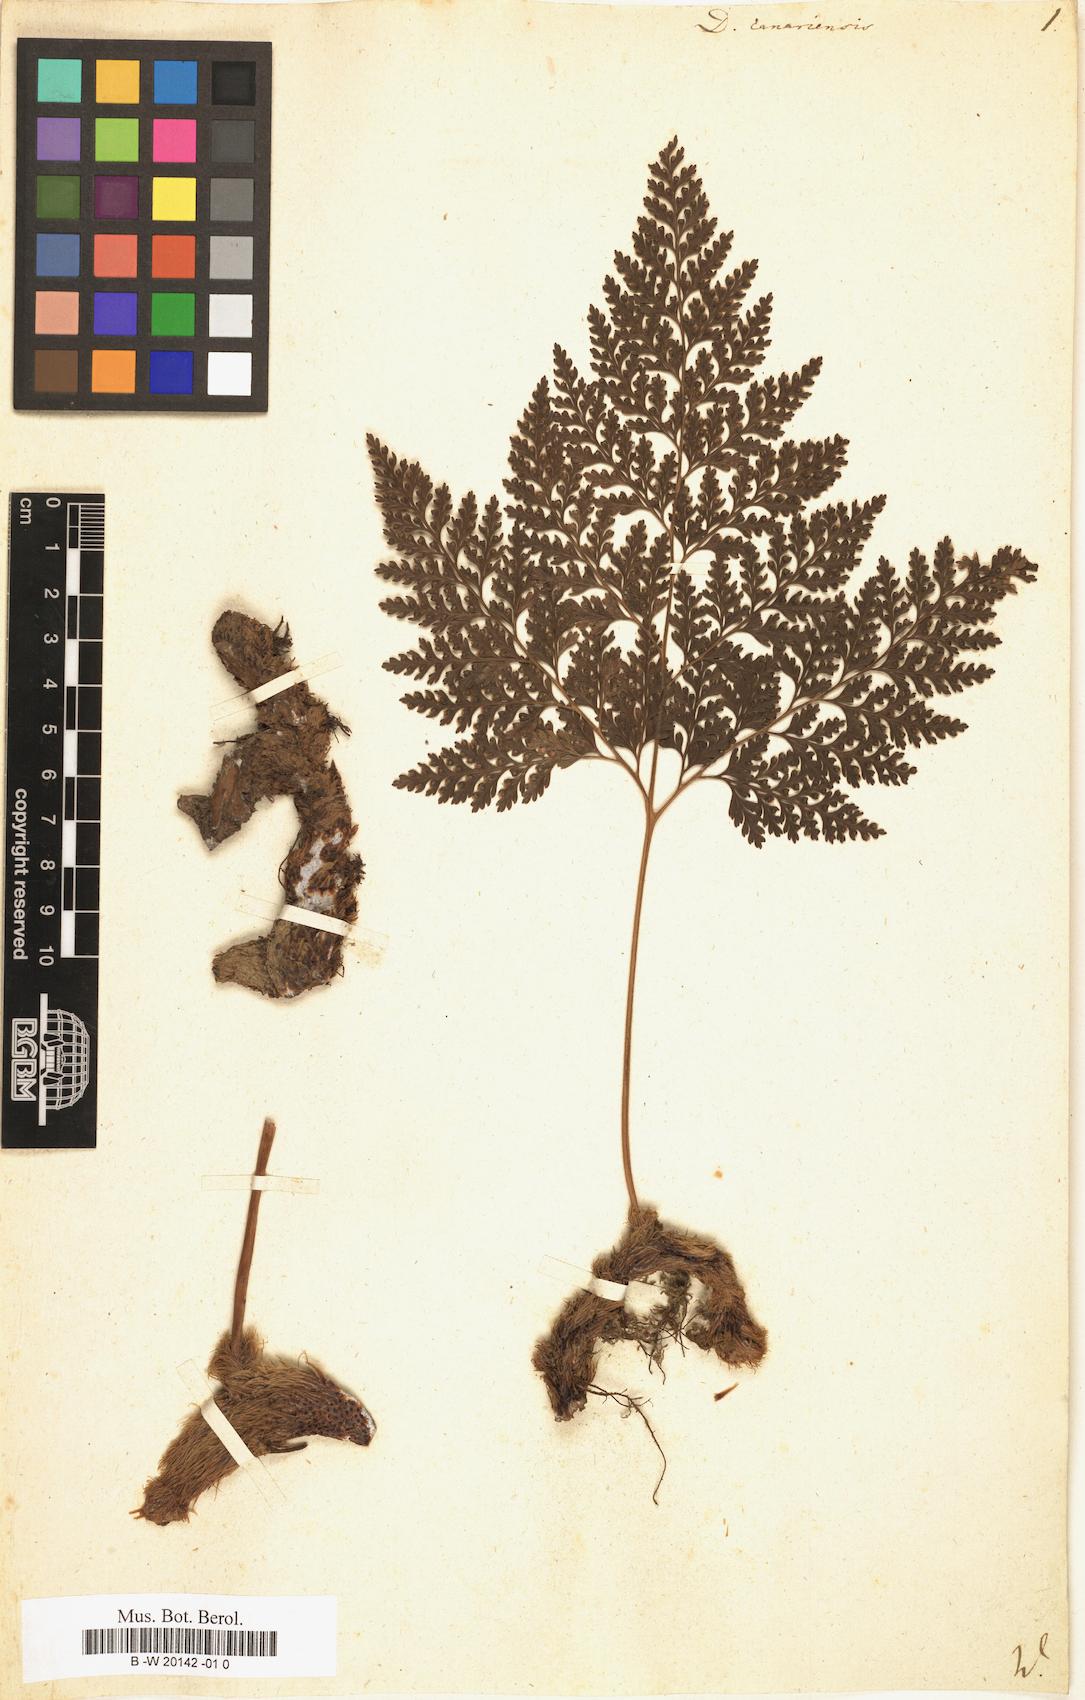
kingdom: Plantae
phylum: Tracheophyta
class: Polypodiopsida
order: Polypodiales
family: Davalliaceae
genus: Davallia
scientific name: Davallia canariensis
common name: Hare's-foot fern
